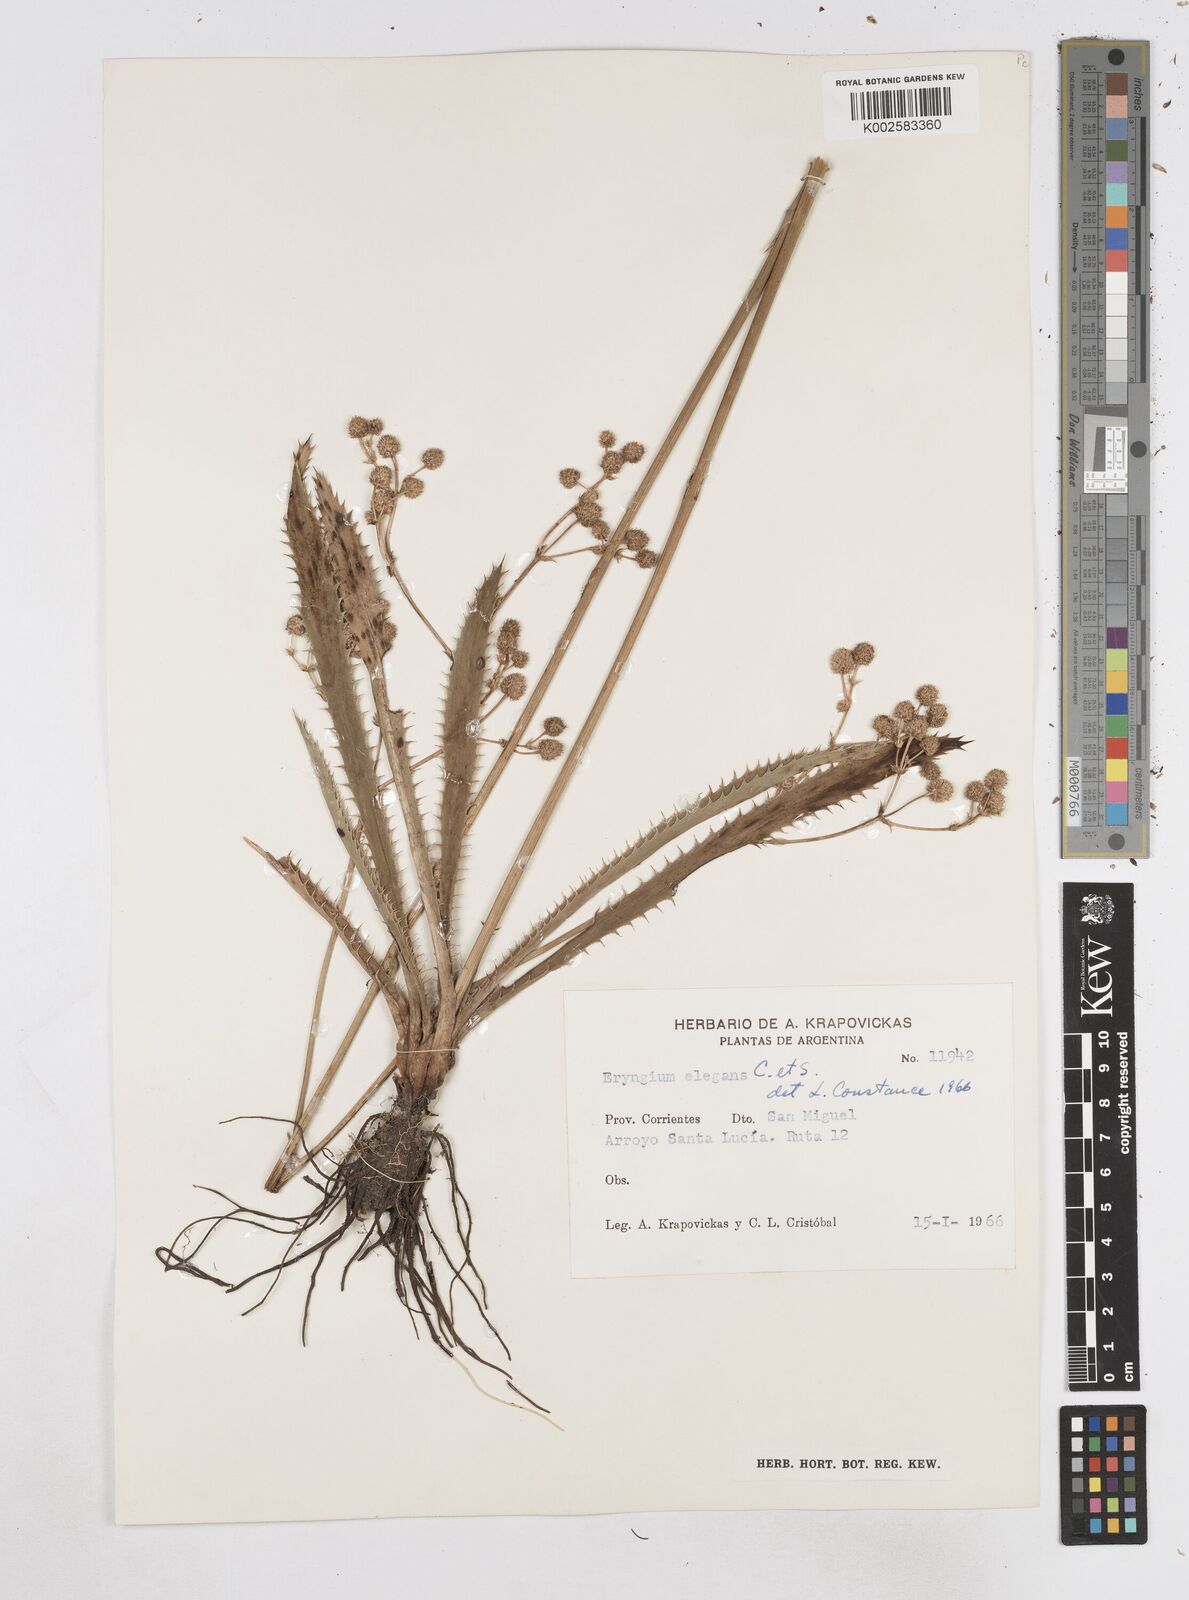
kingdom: Plantae
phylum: Tracheophyta
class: Magnoliopsida
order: Apiales
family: Apiaceae
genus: Eryngium
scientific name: Eryngium elegans
